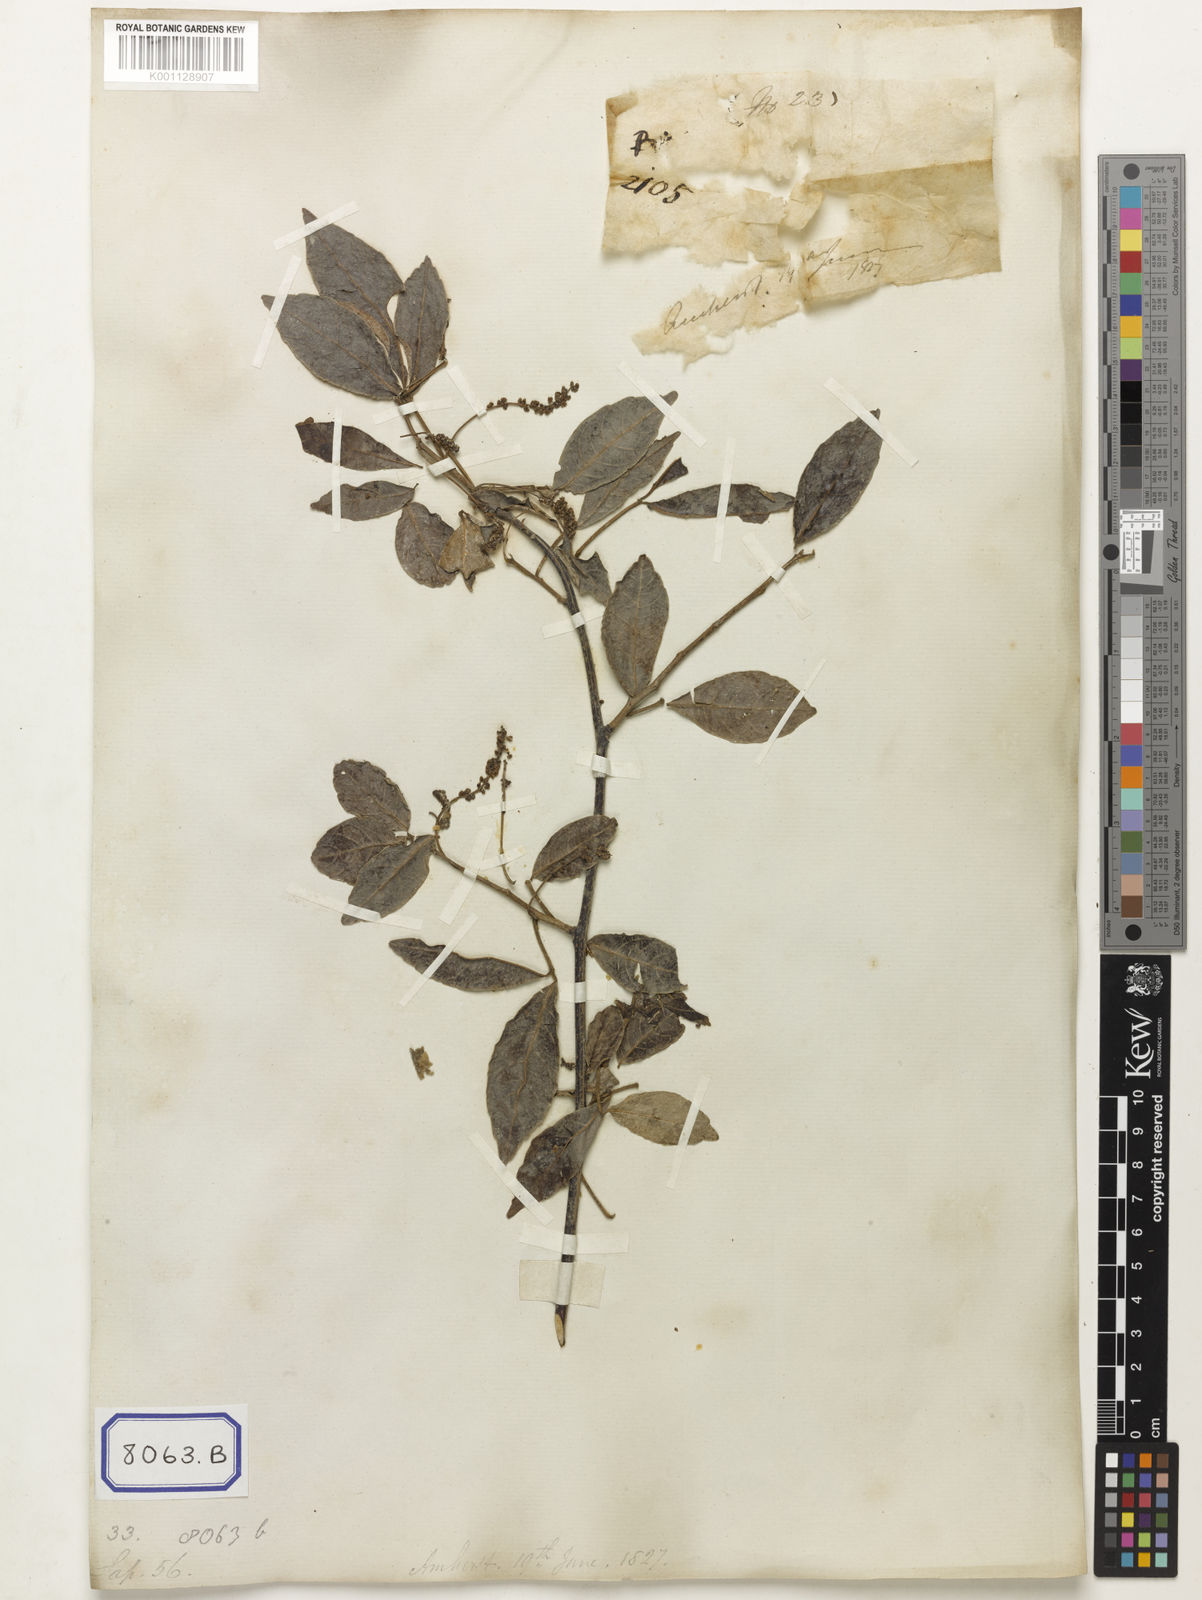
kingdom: Plantae
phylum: Tracheophyta
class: Magnoliopsida
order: Sapindales
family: Sapindaceae
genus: Allophylus
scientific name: Allophylus cobbe
